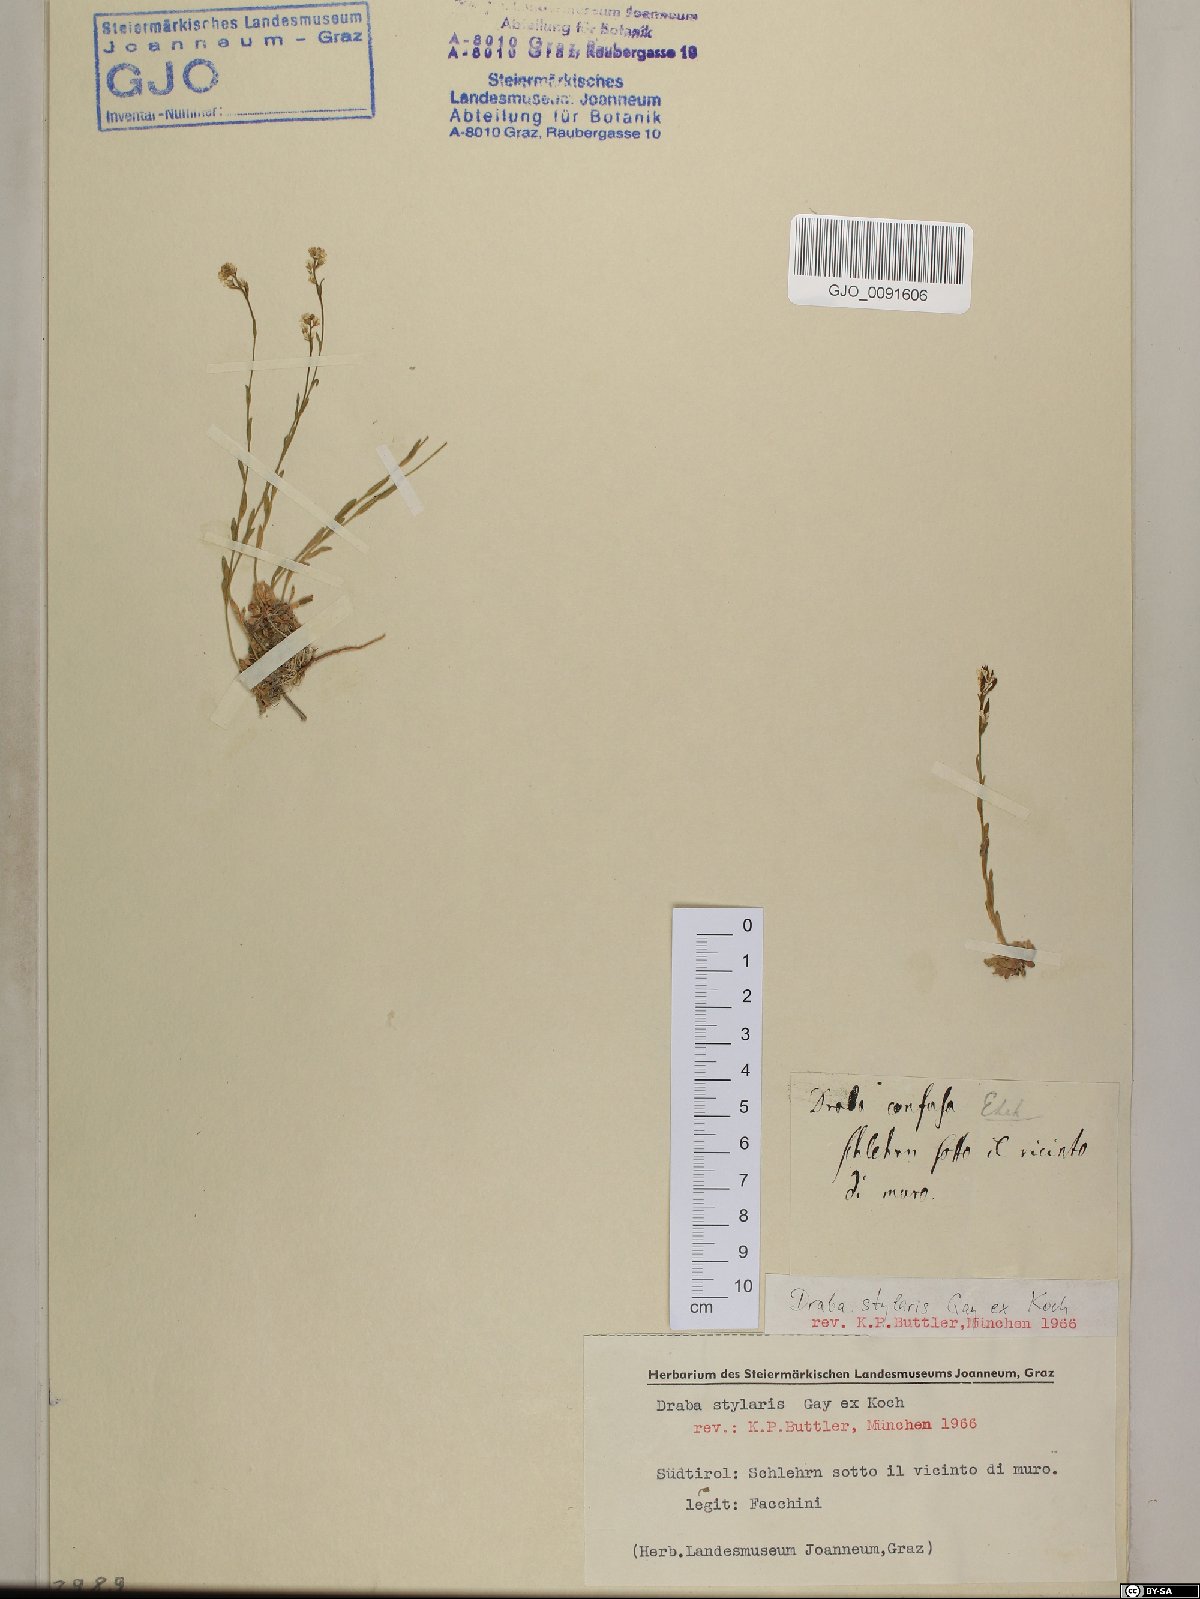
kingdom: Plantae
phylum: Tracheophyta
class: Magnoliopsida
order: Brassicales
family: Brassicaceae
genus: Draba
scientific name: Draba thomasii
